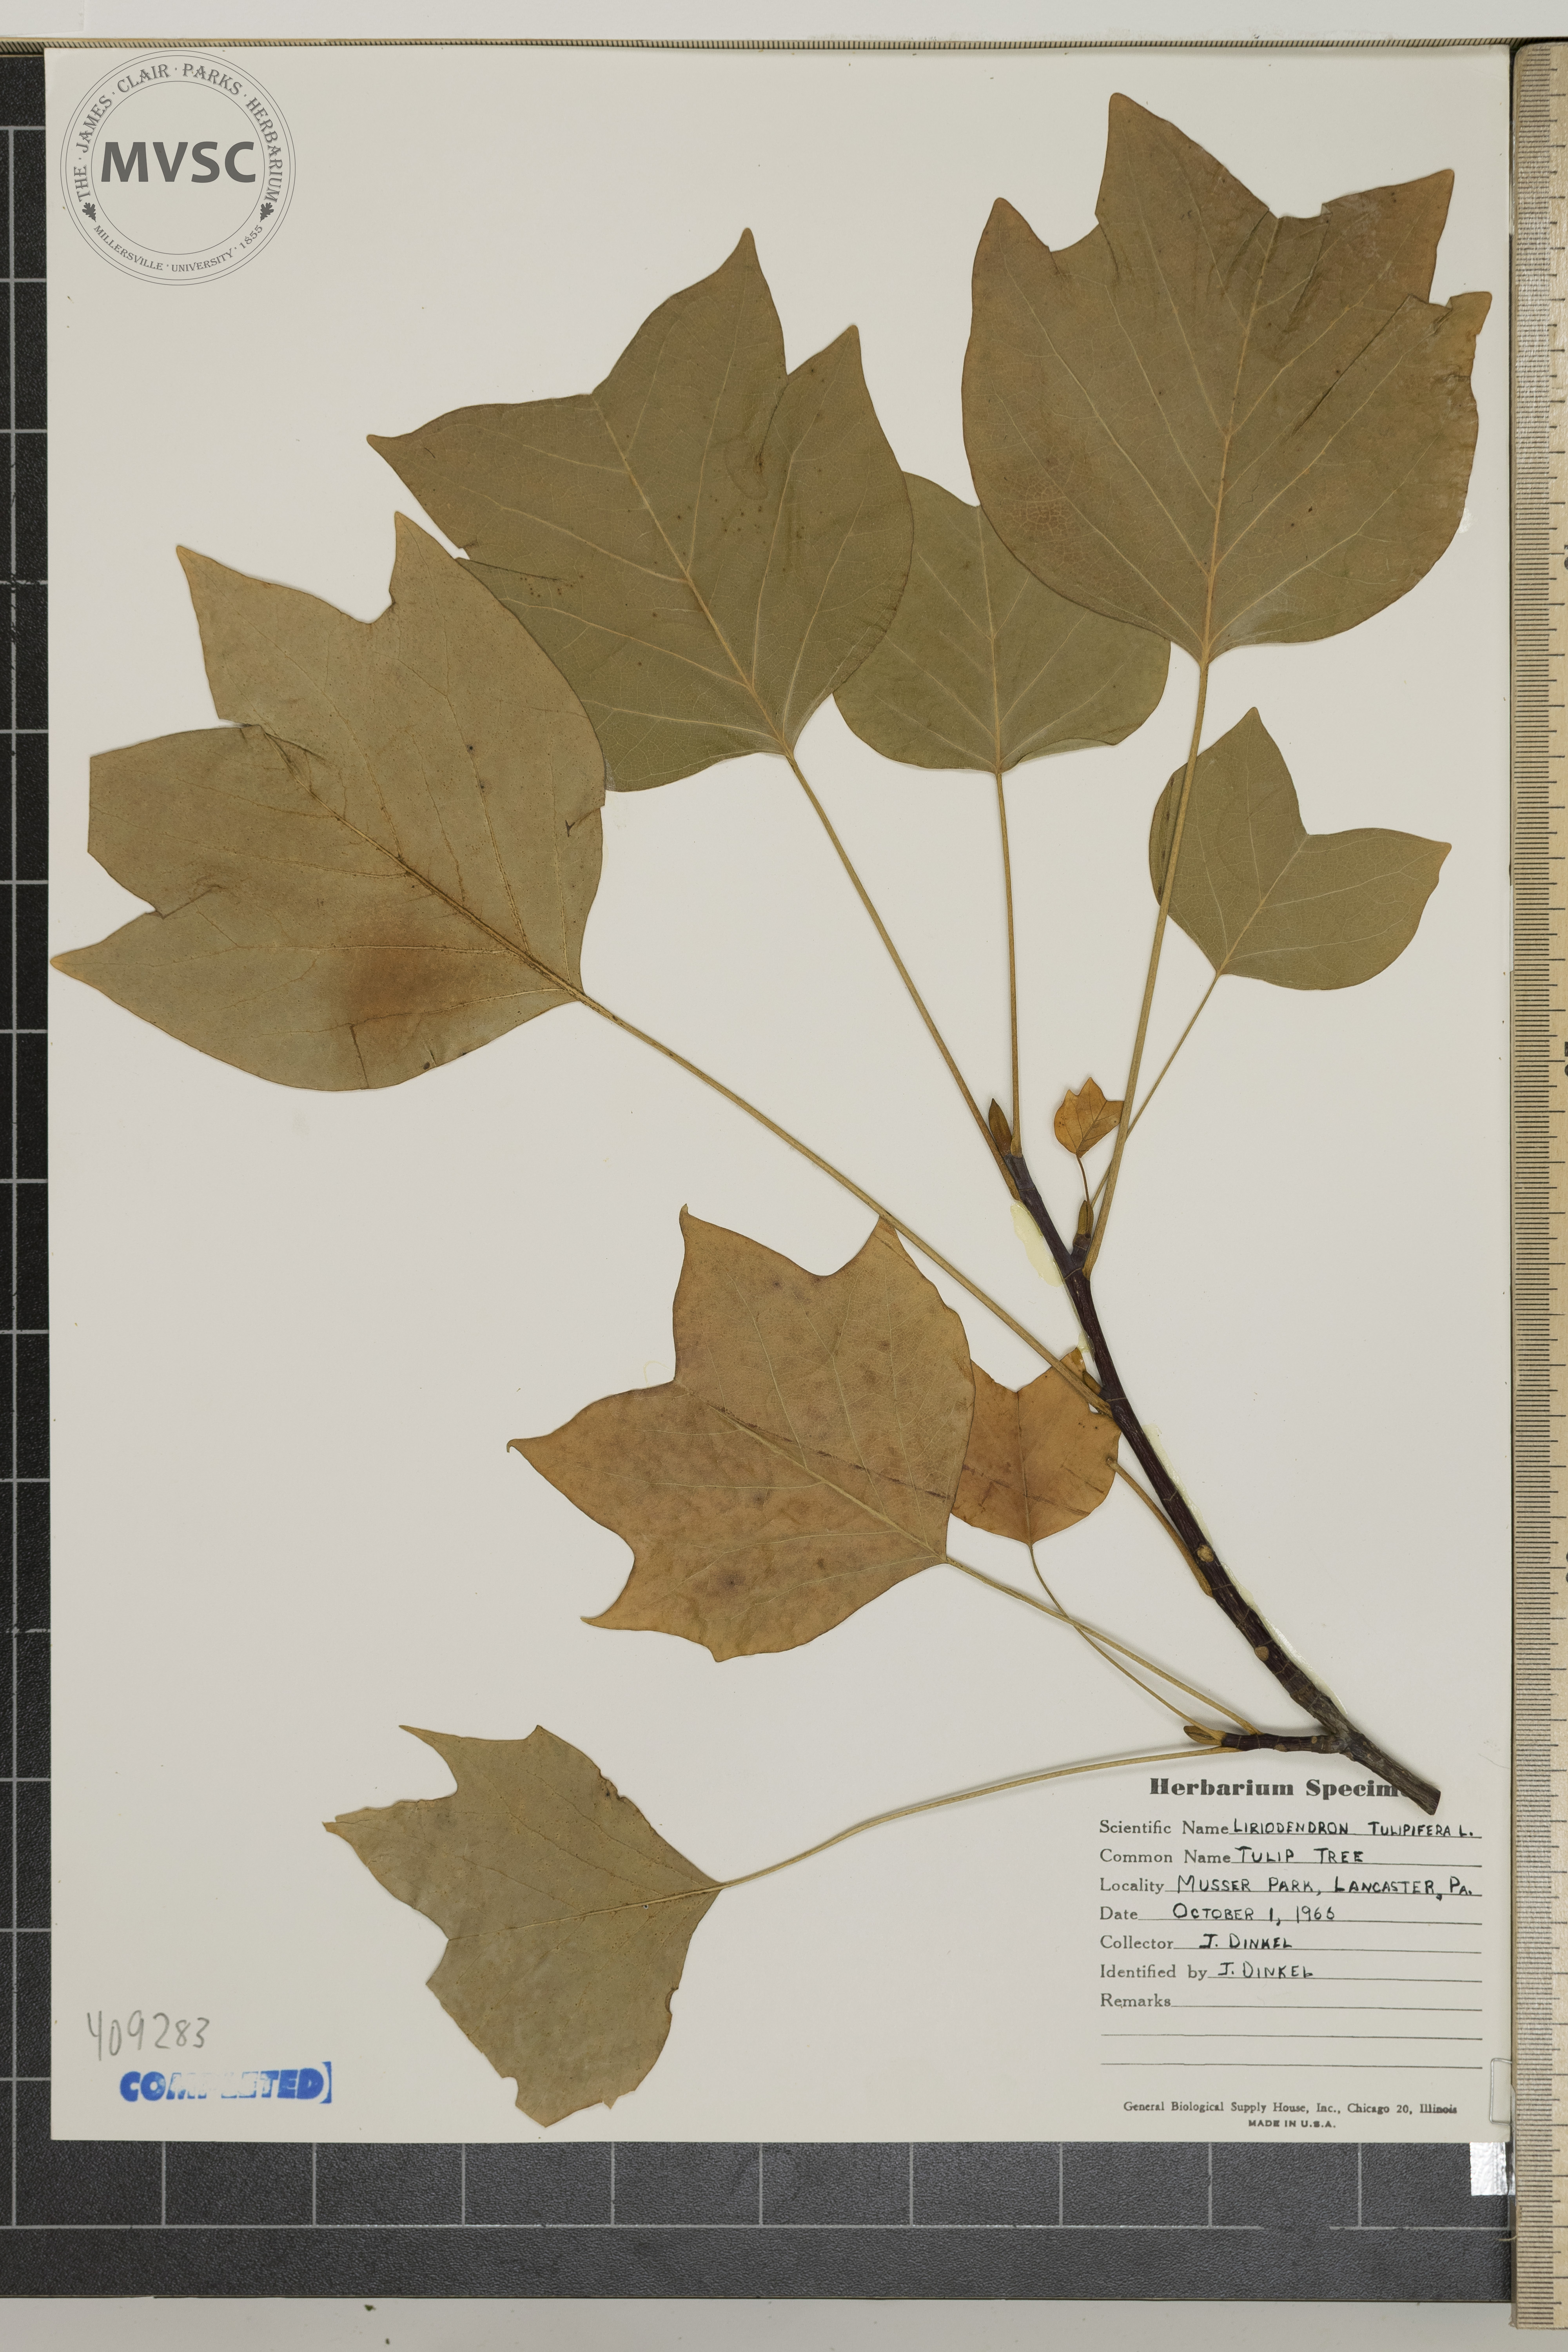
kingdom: Plantae
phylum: Tracheophyta
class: Magnoliopsida
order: Magnoliales
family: Magnoliaceae
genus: Liriodendron
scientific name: Liriodendron tulipifera
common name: Tulip Tree
